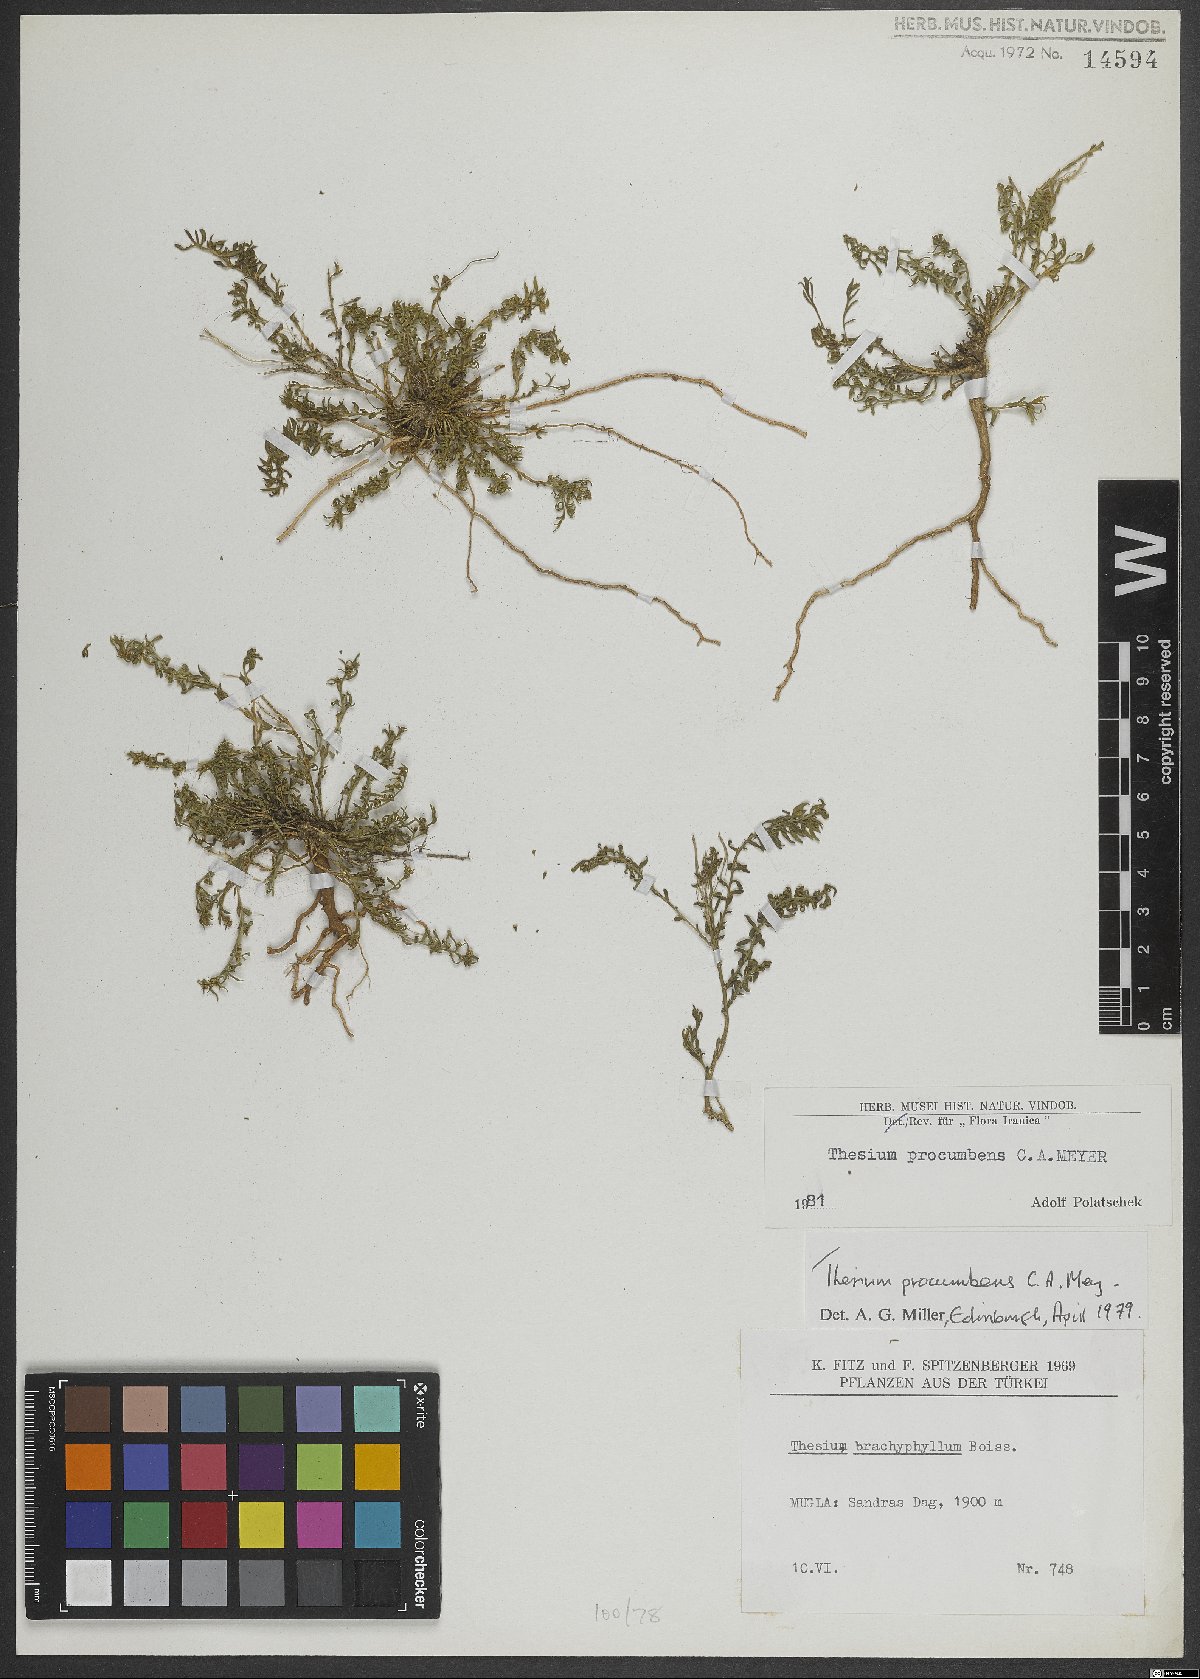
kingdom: Plantae
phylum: Tracheophyta
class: Magnoliopsida
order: Santalales
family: Thesiaceae
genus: Thesium
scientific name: Thesium procumbens
